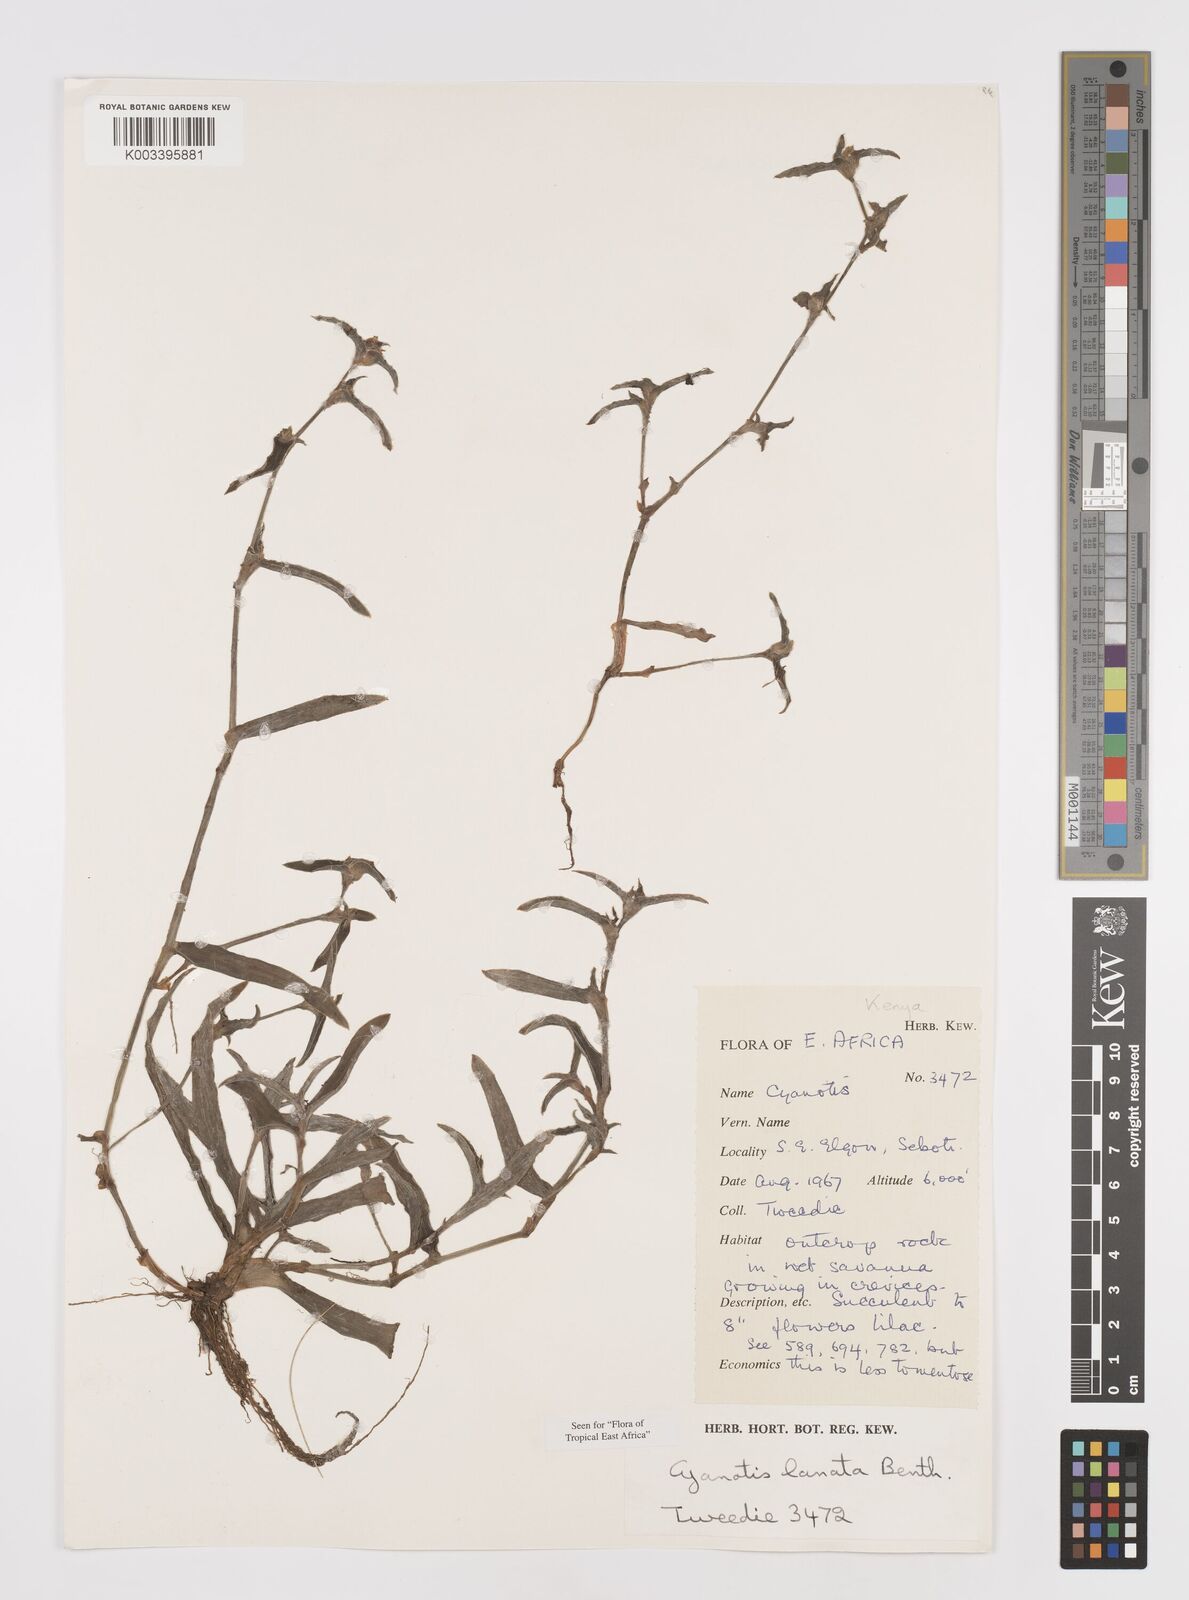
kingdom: Plantae
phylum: Tracheophyta
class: Liliopsida
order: Commelinales
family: Commelinaceae
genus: Cyanotis
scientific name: Cyanotis lanata
